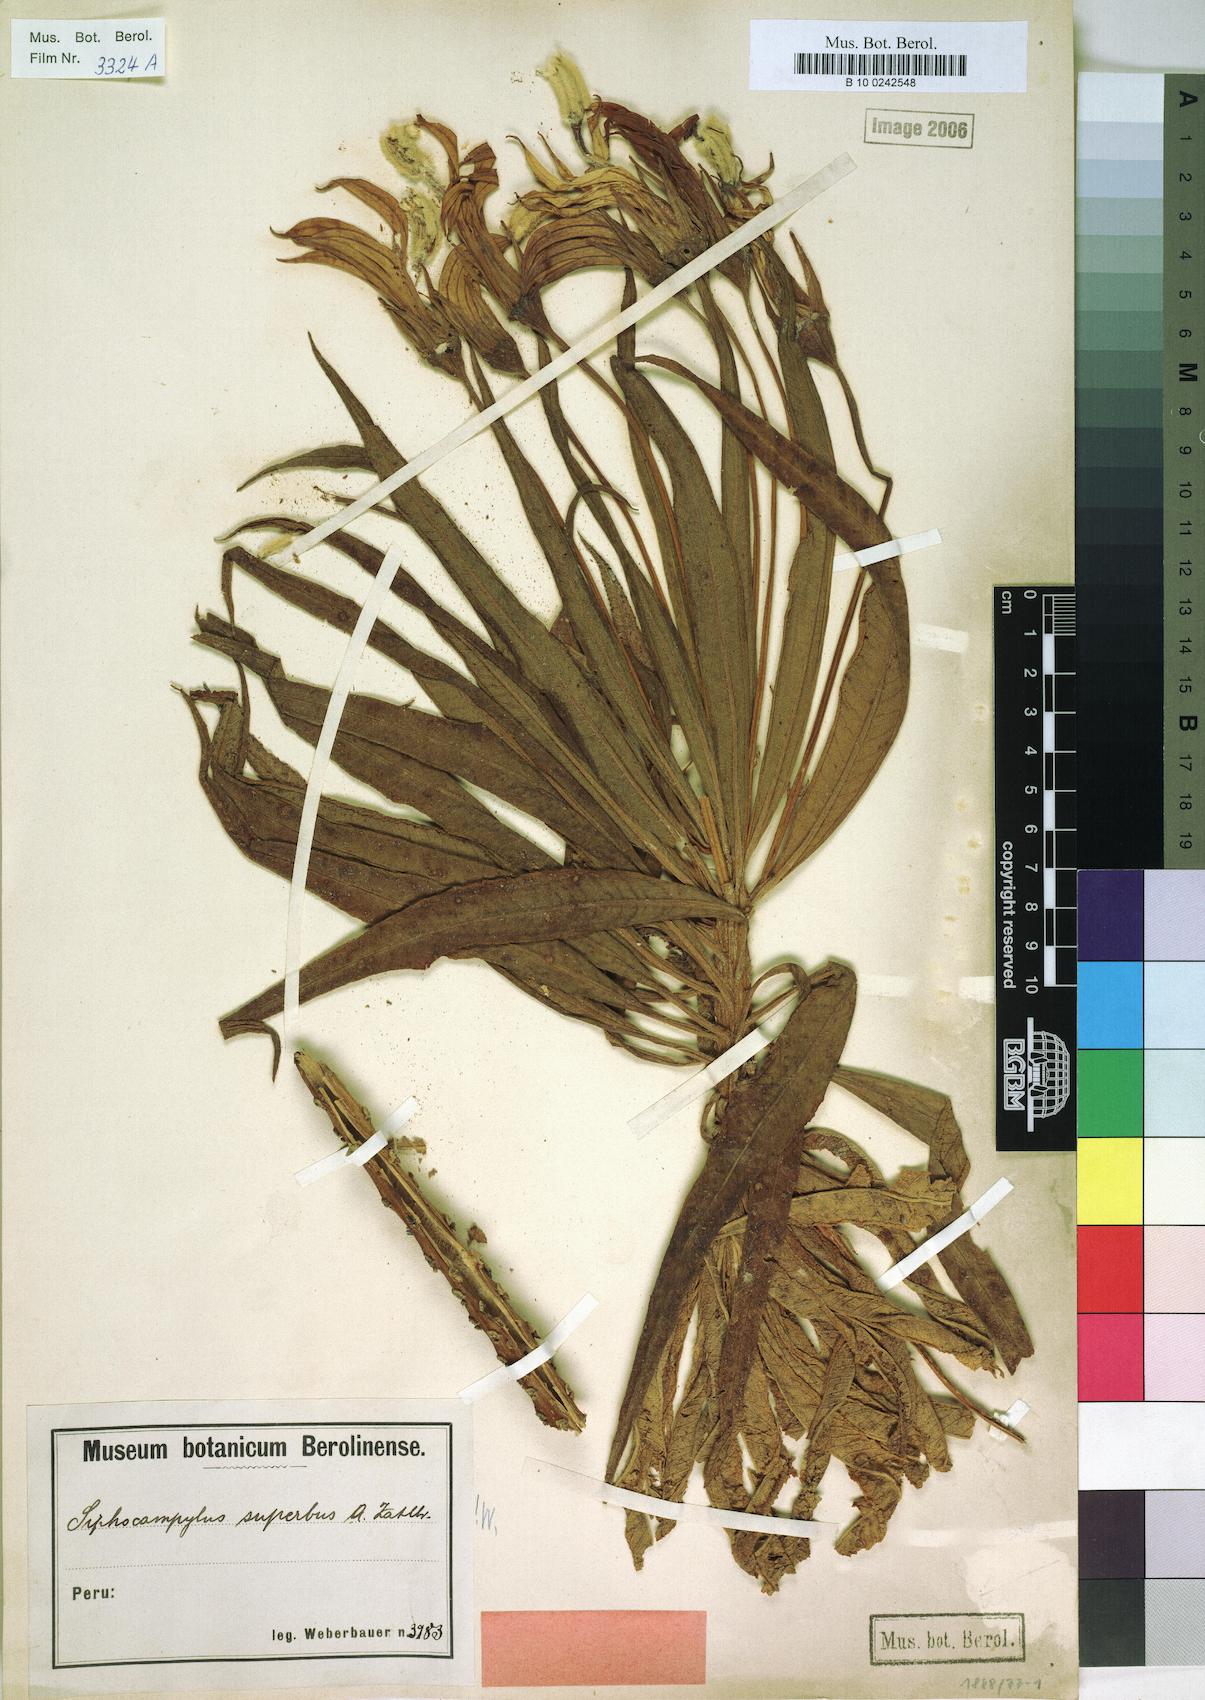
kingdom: Plantae
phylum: Tracheophyta
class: Magnoliopsida
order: Asterales
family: Campanulaceae
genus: Siphocampylus
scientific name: Siphocampylus jelskii
